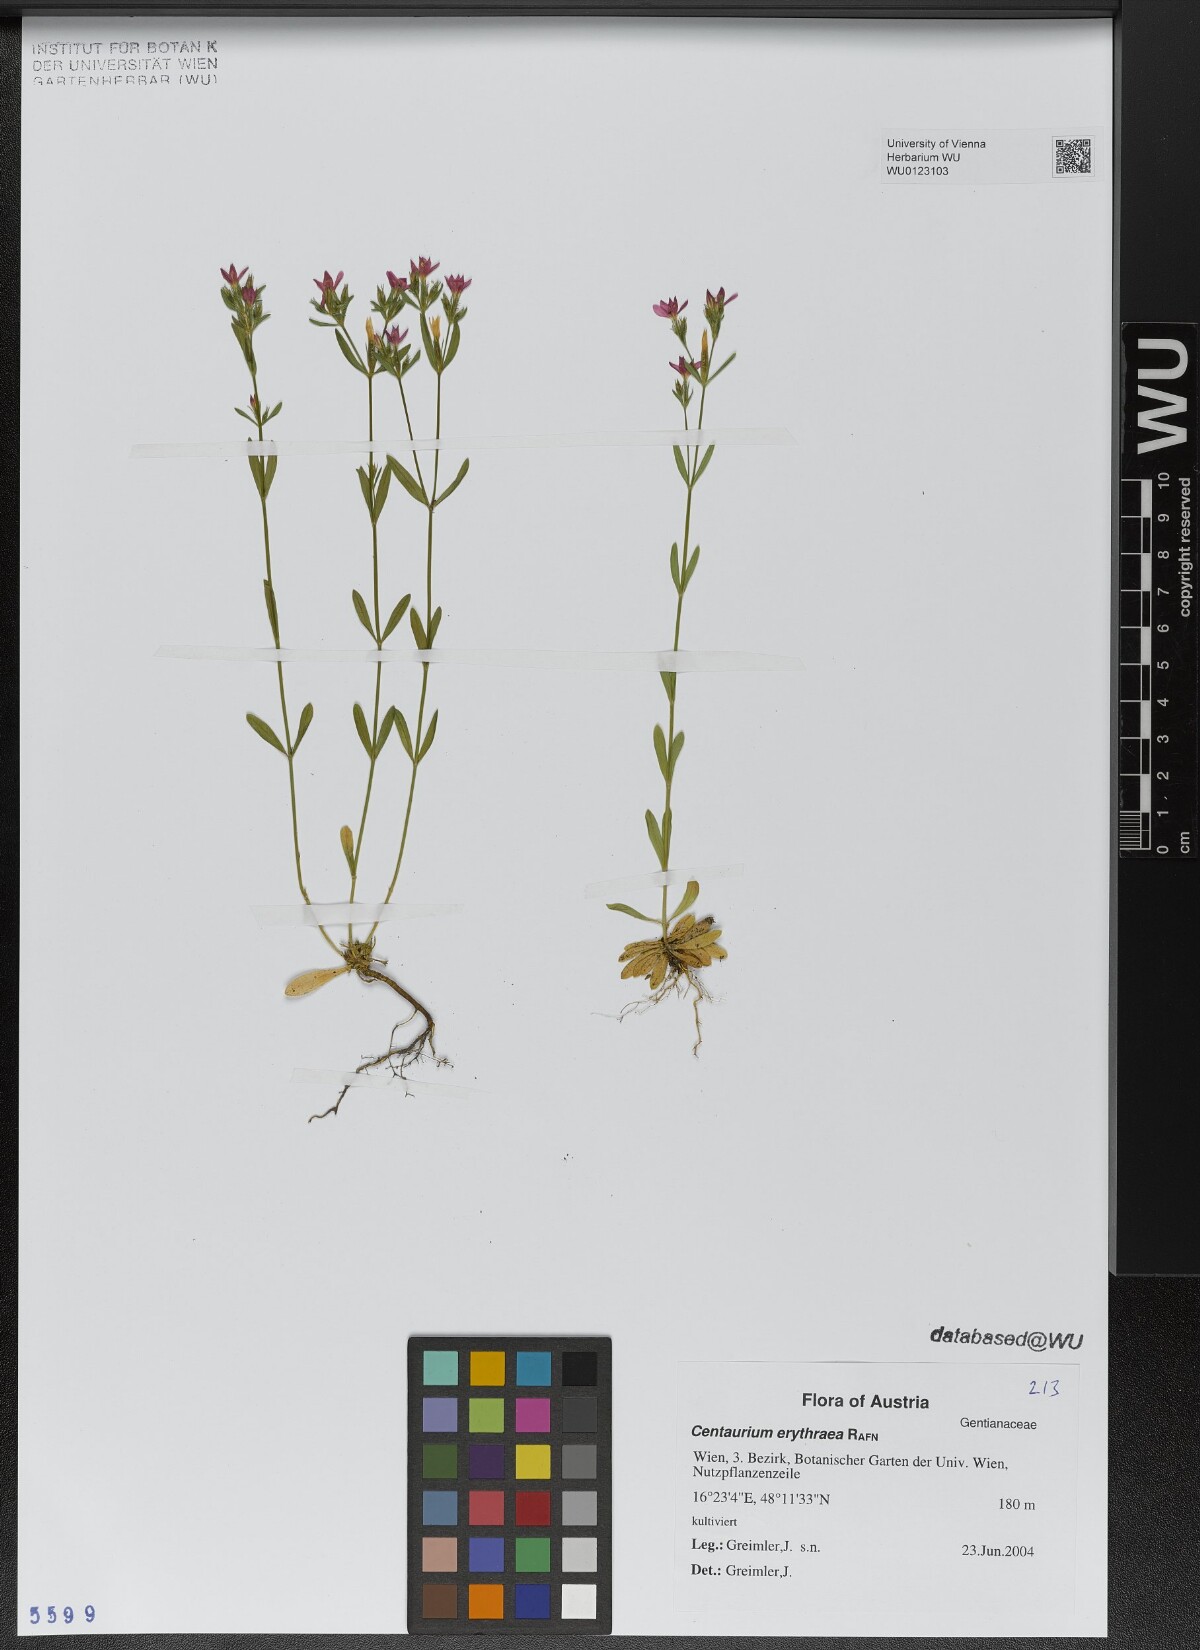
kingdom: Plantae
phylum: Tracheophyta
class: Magnoliopsida
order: Gentianales
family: Gentianaceae
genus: Centaurium
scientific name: Centaurium erythraea
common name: Common centaury
